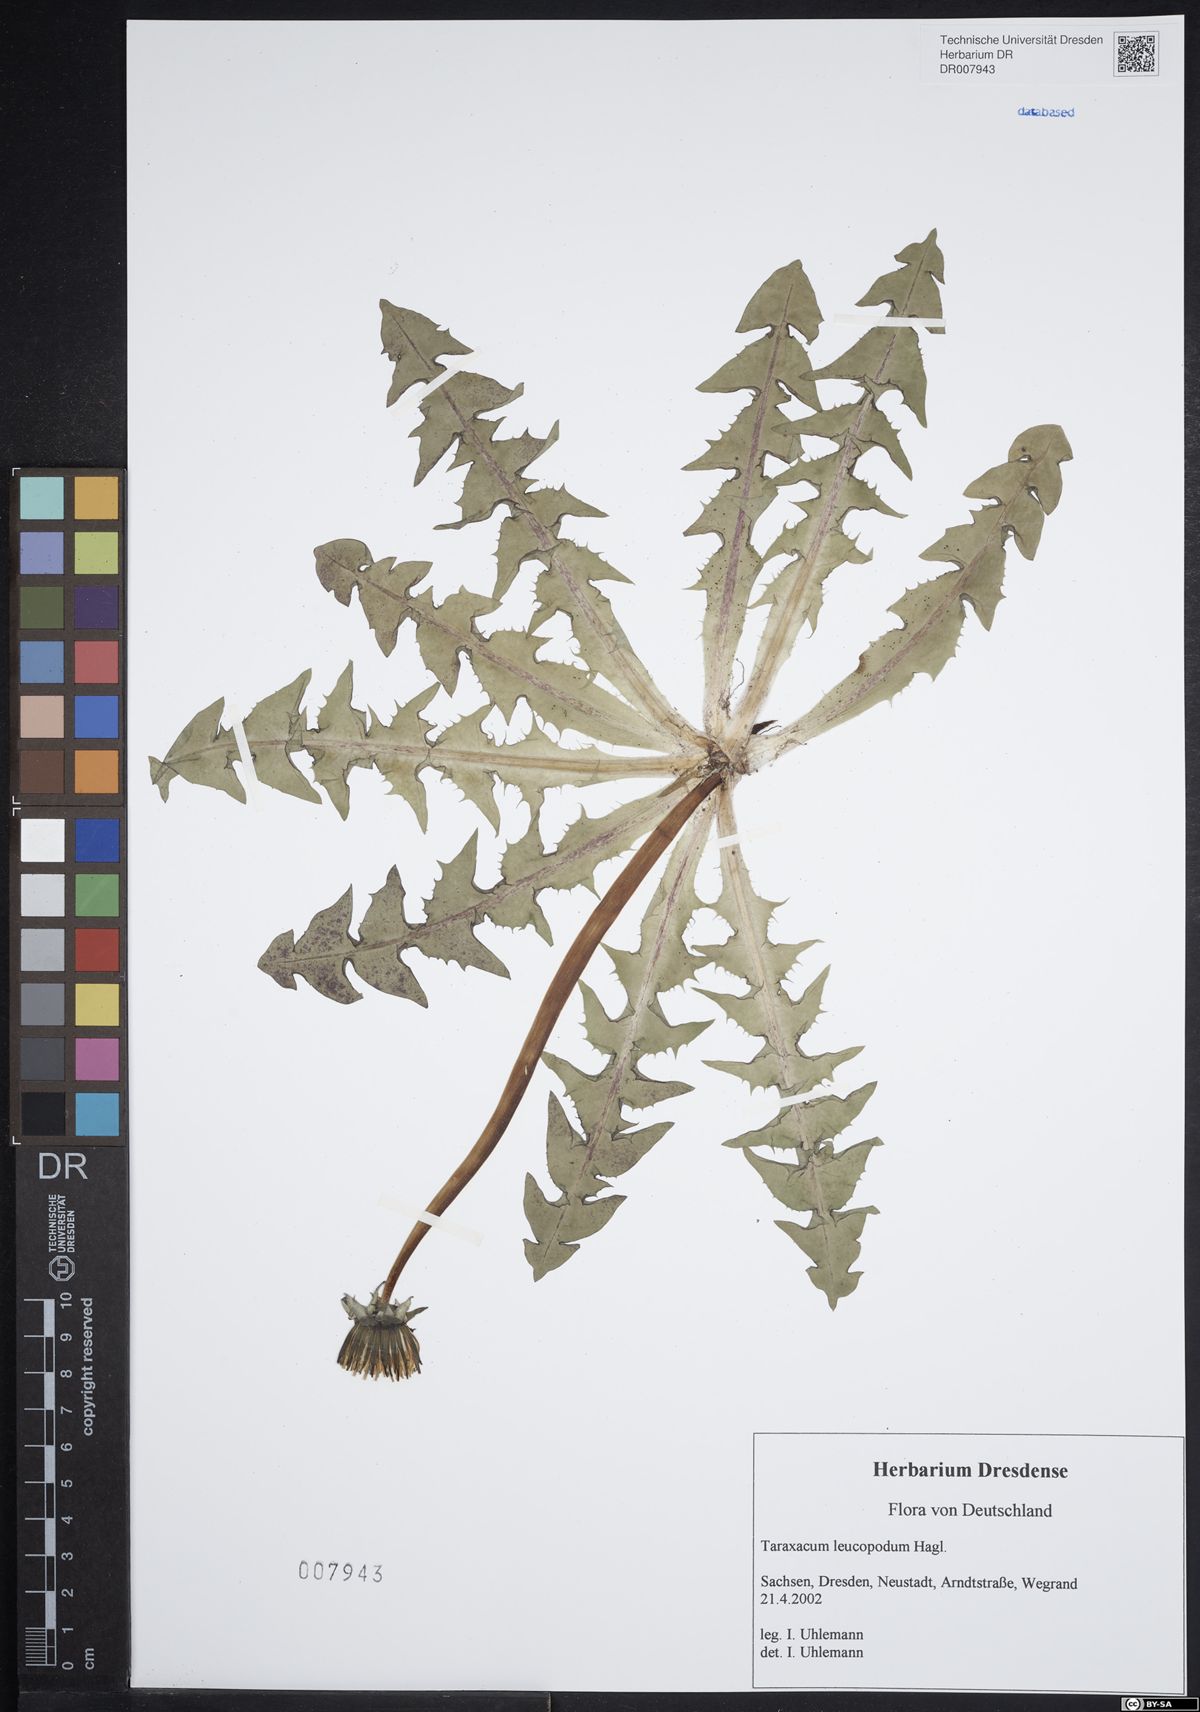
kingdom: Plantae
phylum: Tracheophyta
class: Magnoliopsida
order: Asterales
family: Asteraceae
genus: Taraxacum
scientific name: Taraxacum leucopodum
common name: White-stalked dandelion
